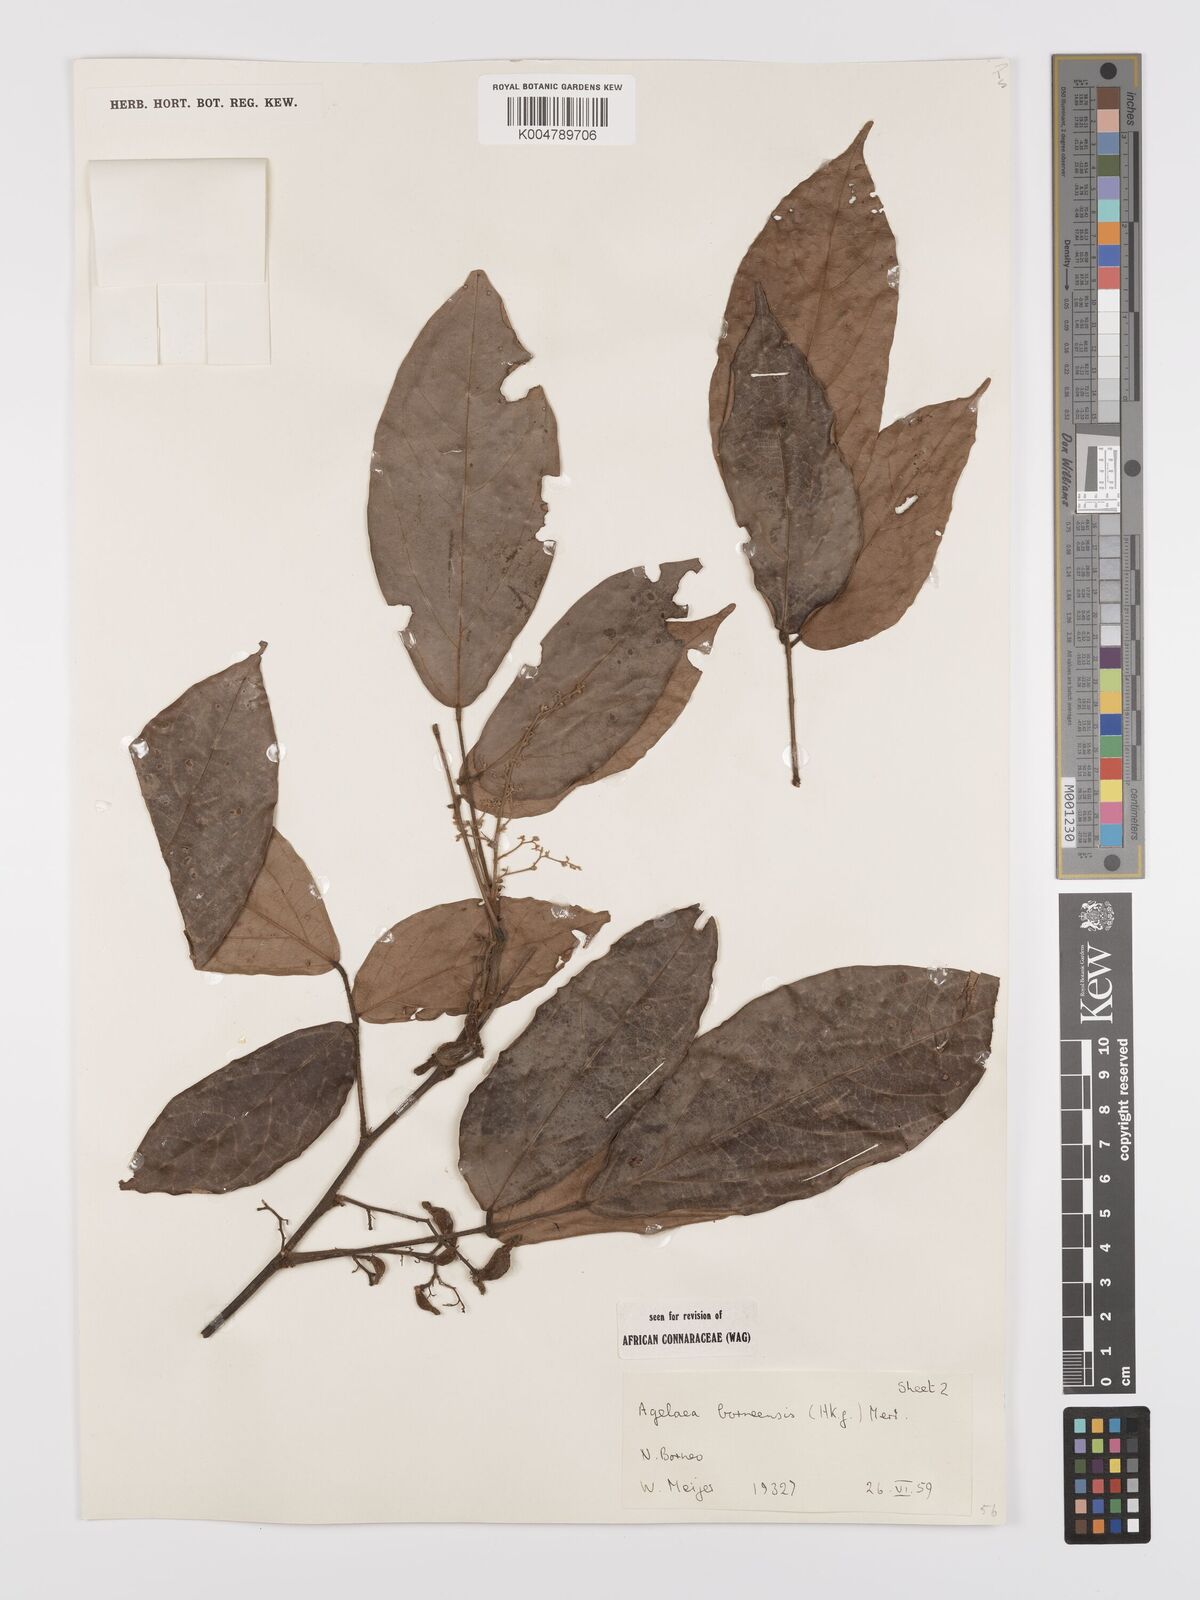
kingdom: Plantae
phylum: Tracheophyta
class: Magnoliopsida
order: Oxalidales
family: Connaraceae
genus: Agelaea
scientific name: Agelaea borneensis
